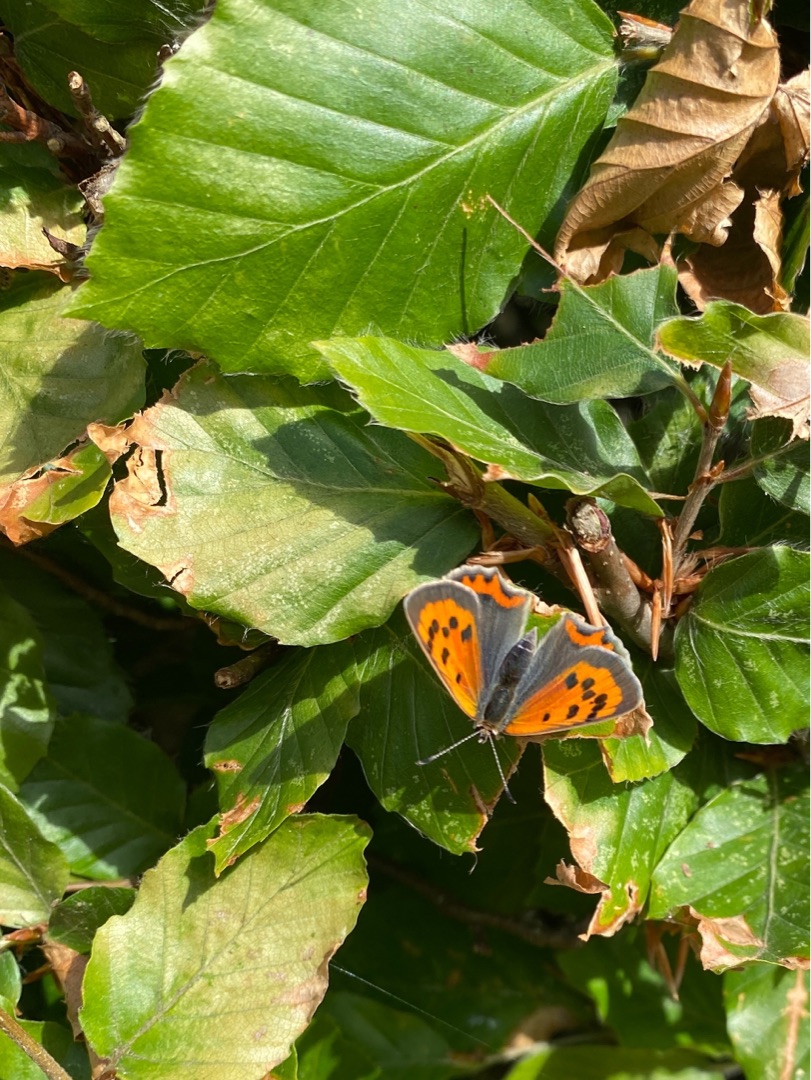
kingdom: Animalia
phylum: Arthropoda
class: Insecta
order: Lepidoptera
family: Lycaenidae
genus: Lycaena
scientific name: Lycaena phlaeas
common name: Lille ildfugl
